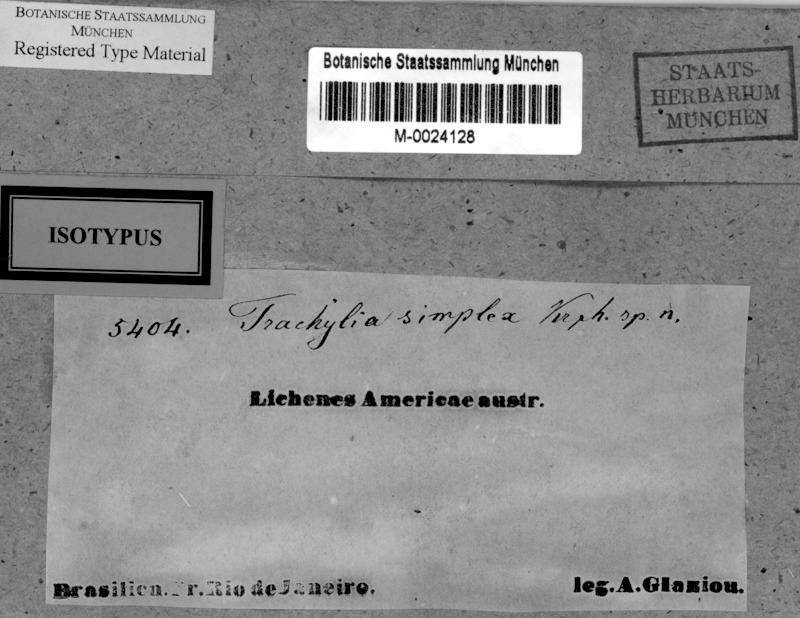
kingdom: Fungi
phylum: Ascomycota
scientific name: Ascomycota
